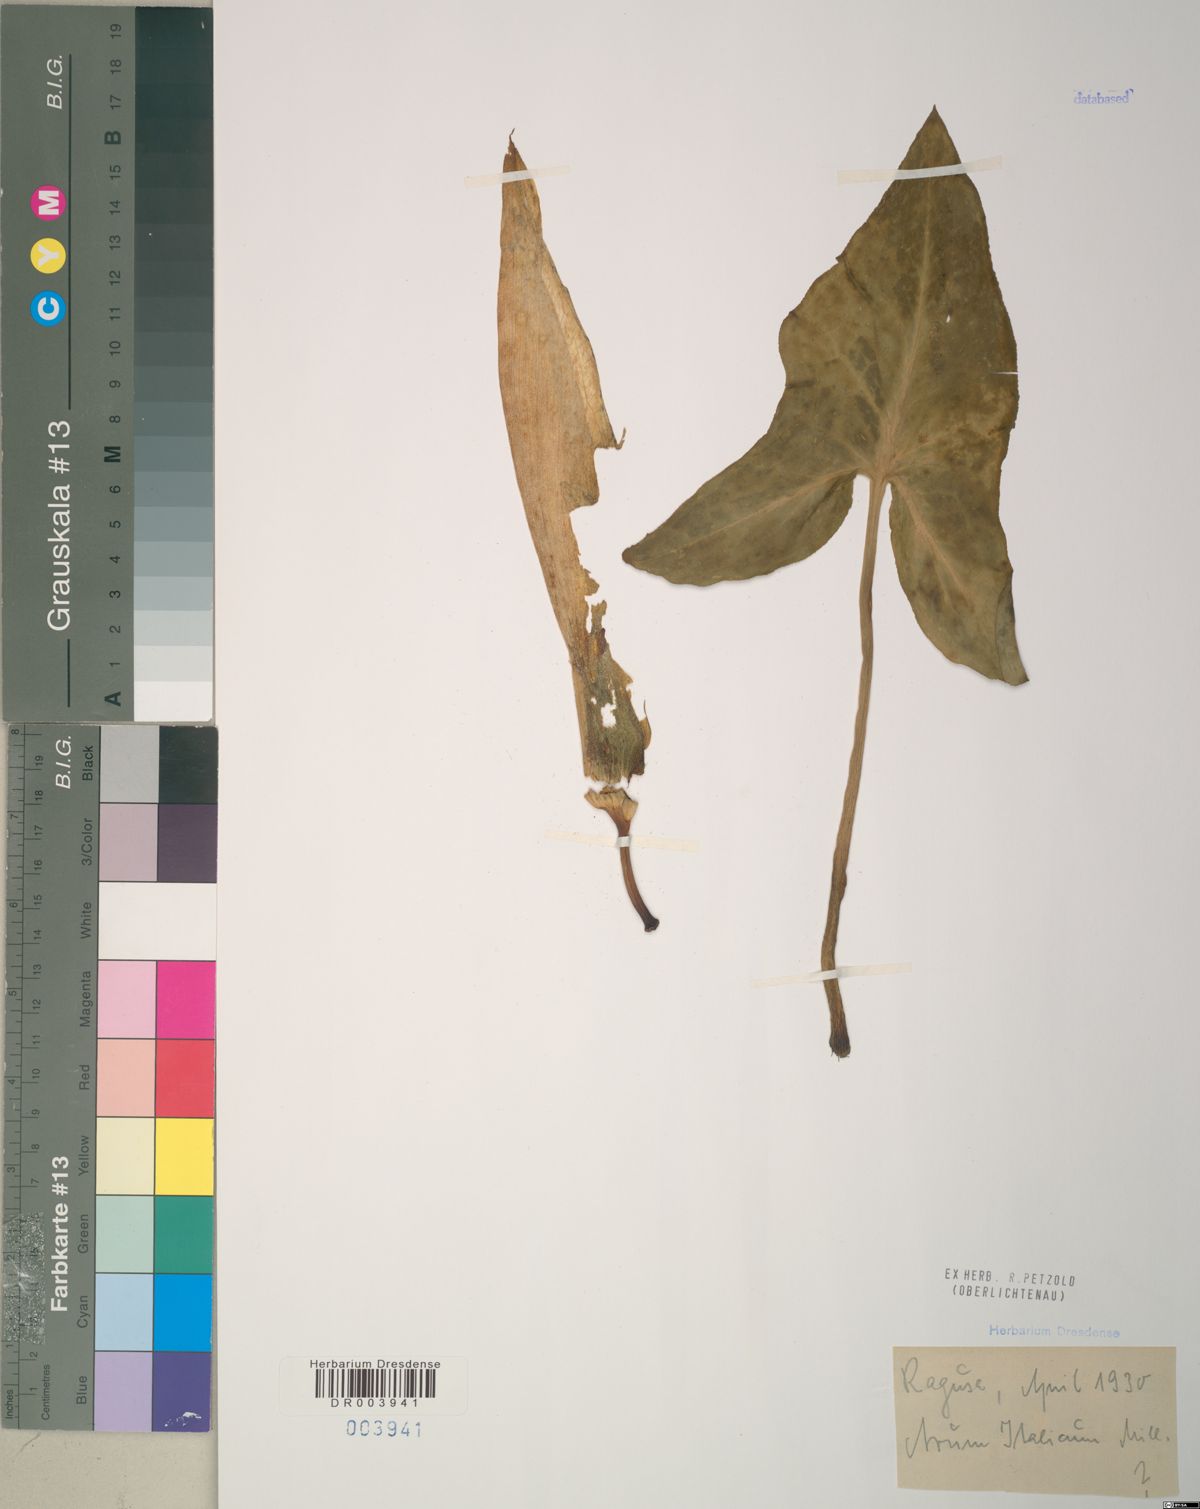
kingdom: Plantae
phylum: Tracheophyta
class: Liliopsida
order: Alismatales
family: Araceae
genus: Arum
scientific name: Arum italicum
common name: Italian lords-and-ladies
